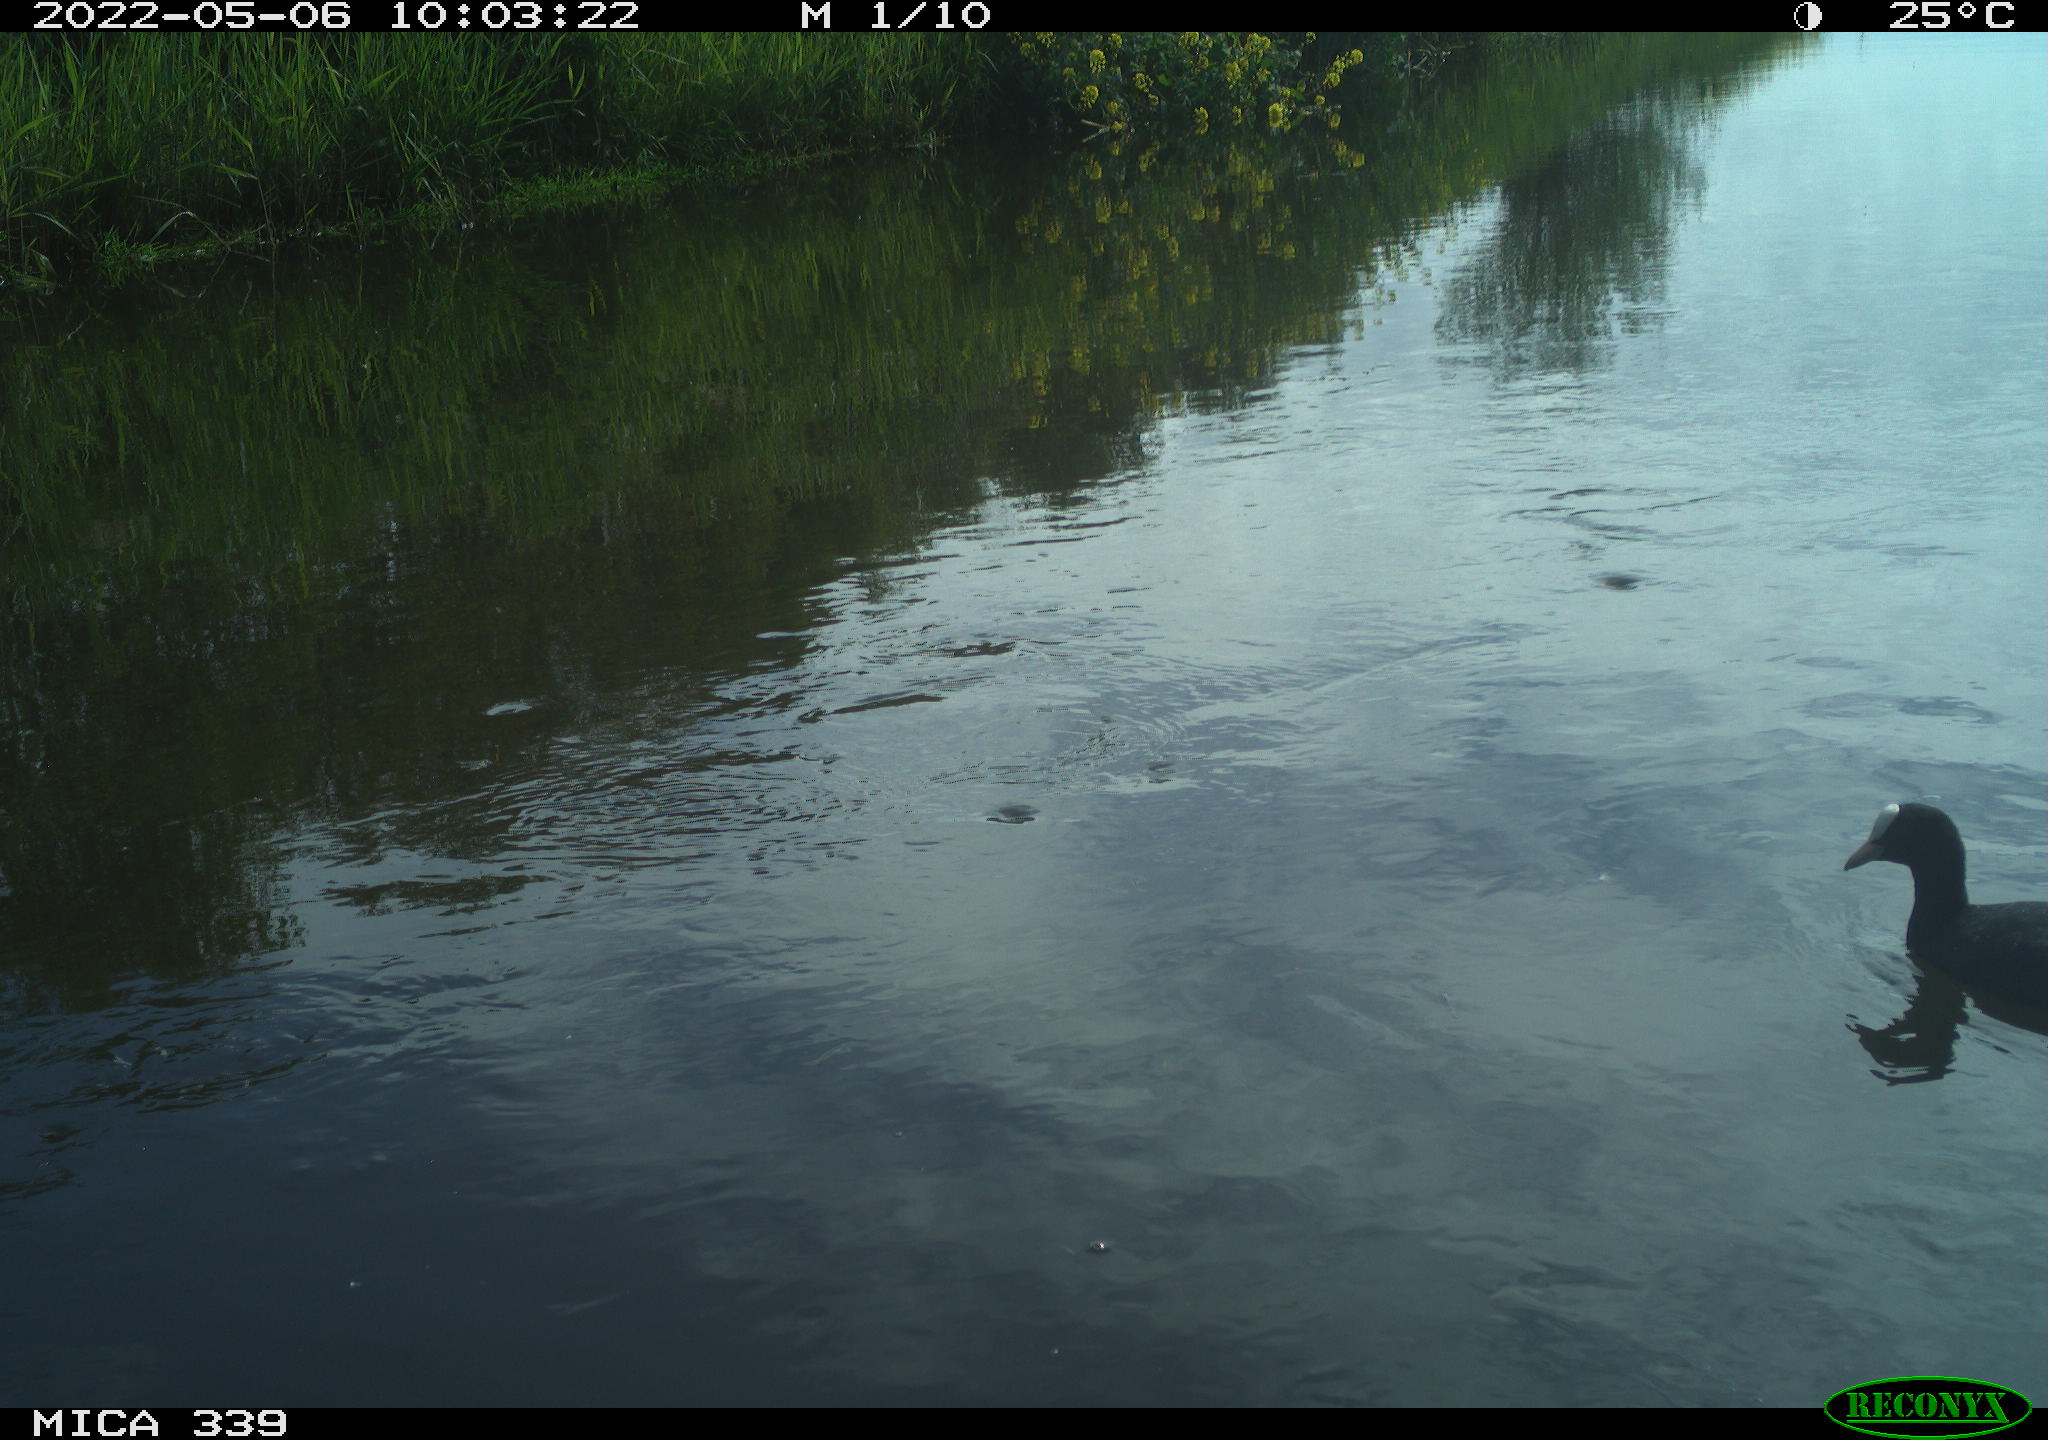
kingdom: Animalia
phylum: Chordata
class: Aves
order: Gruiformes
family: Rallidae
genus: Fulica
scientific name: Fulica atra
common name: Eurasian coot
